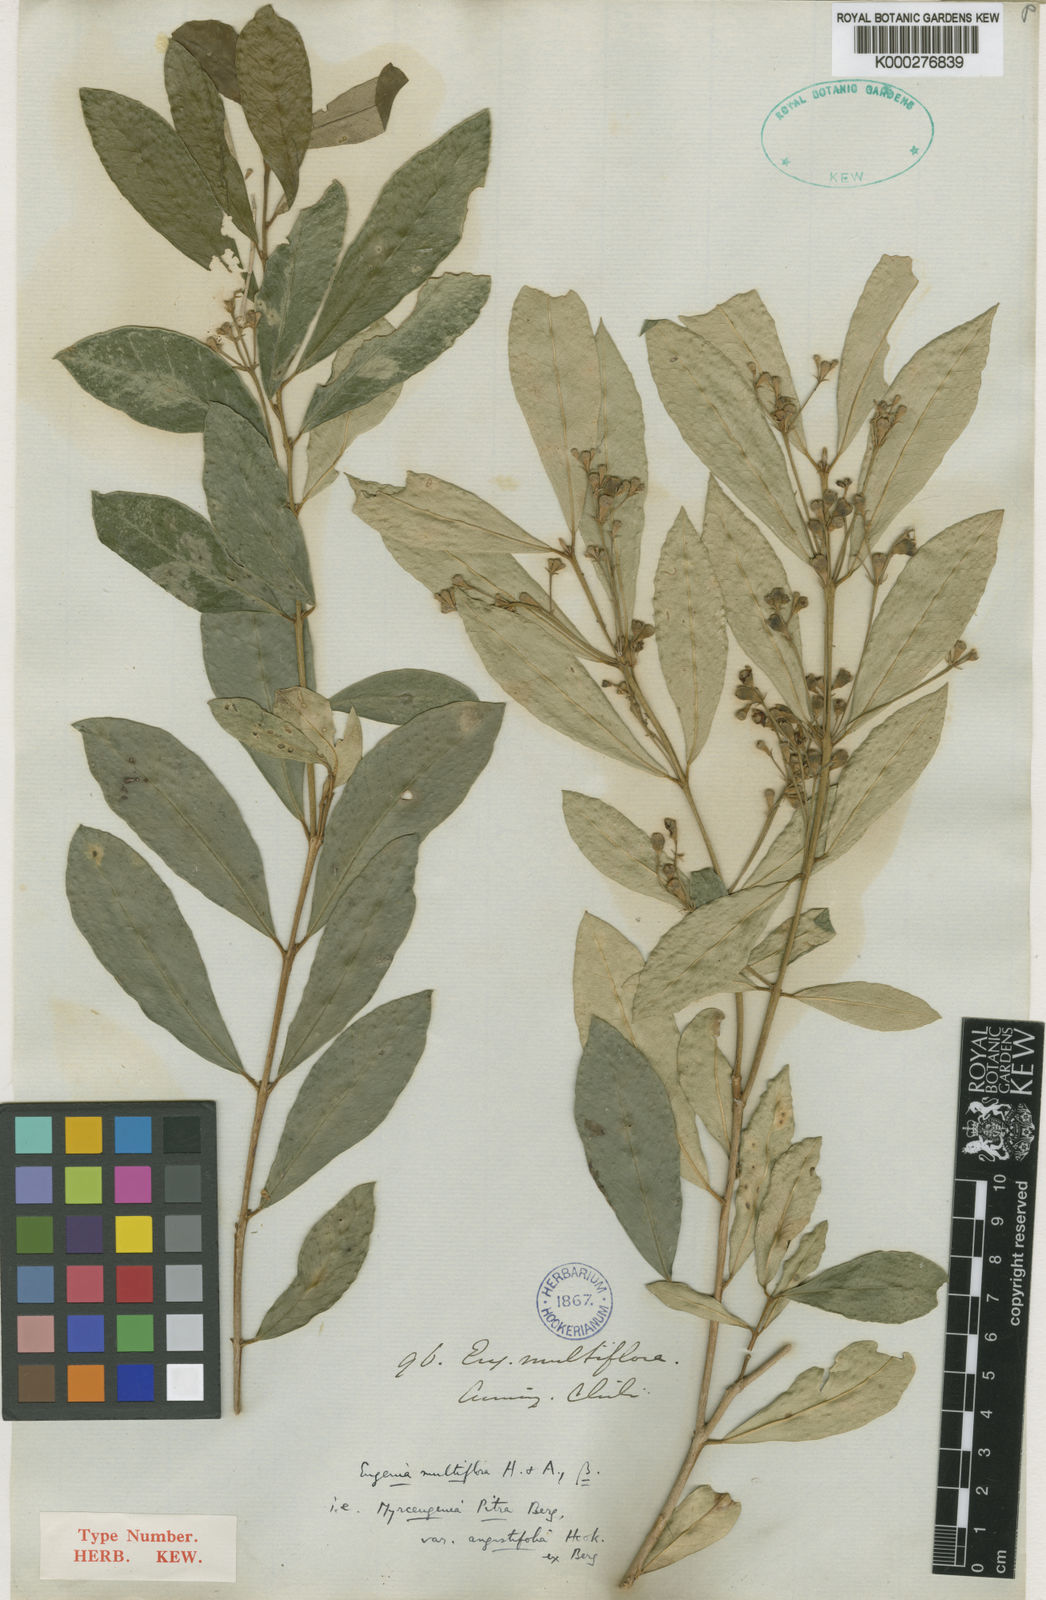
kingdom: Plantae
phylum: Tracheophyta
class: Magnoliopsida
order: Myrtales
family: Myrtaceae
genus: Myrceugenia
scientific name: Myrceugenia exsucca
